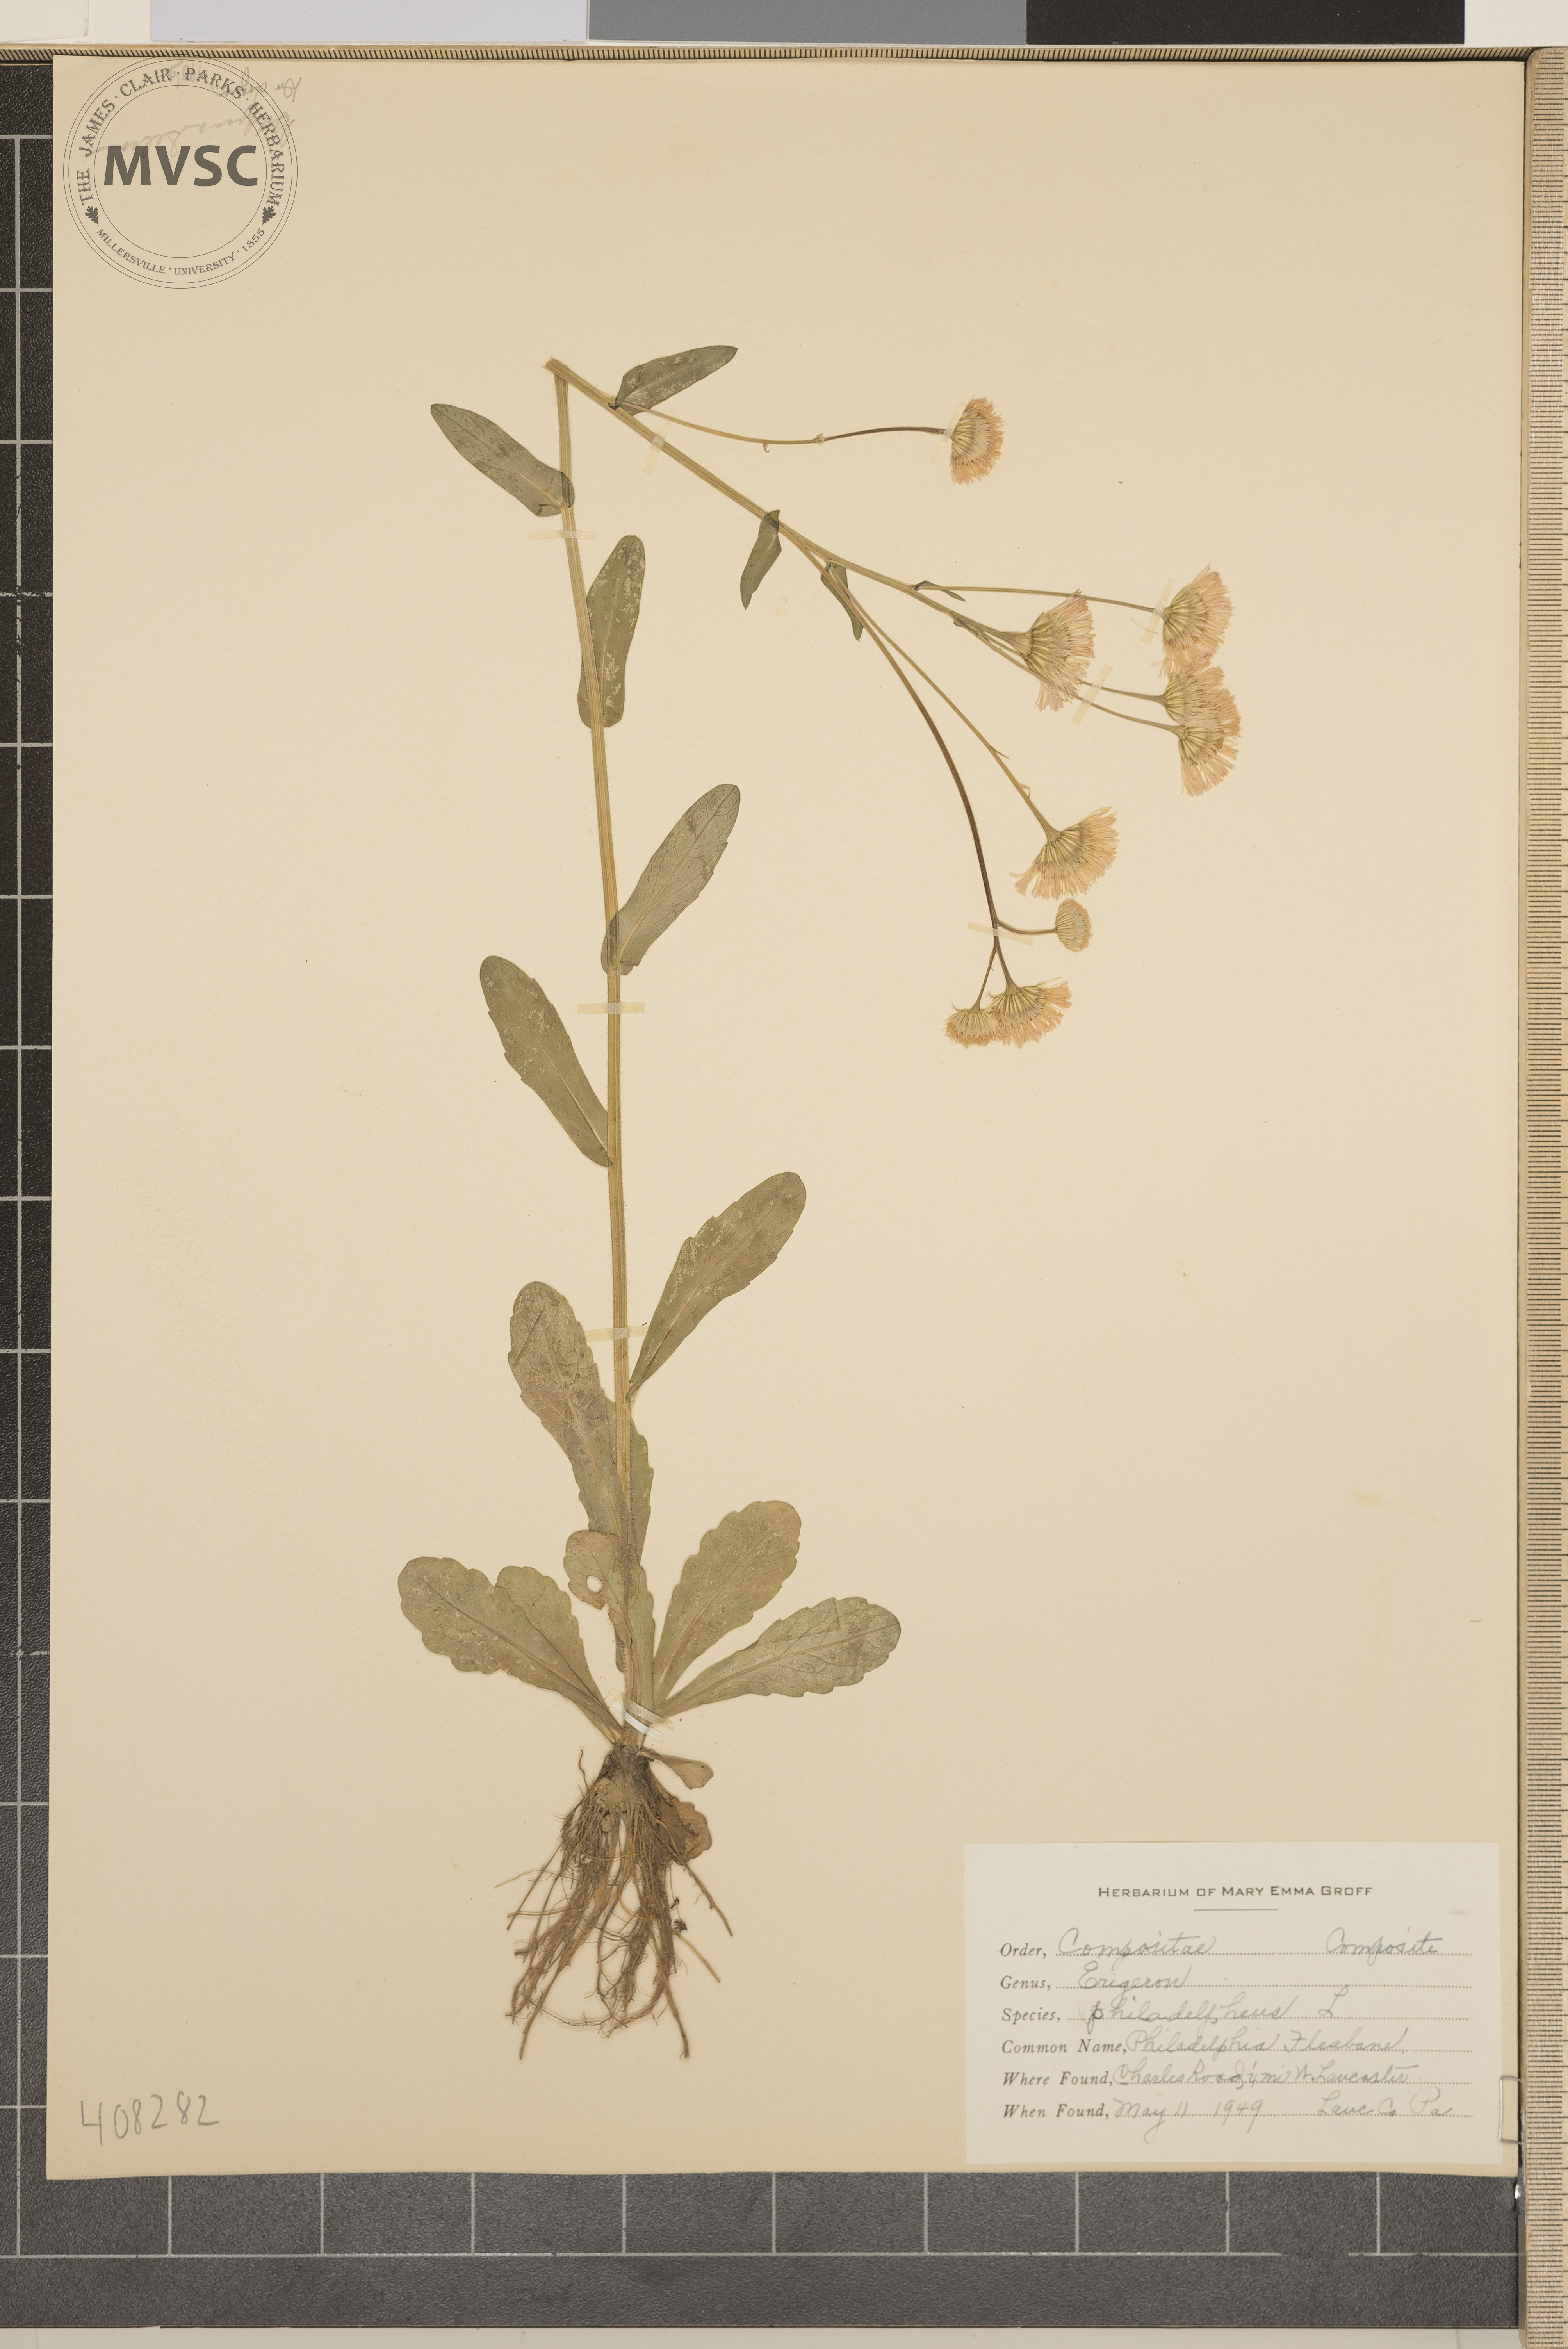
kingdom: Plantae
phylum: Tracheophyta
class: Magnoliopsida
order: Asterales
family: Asteraceae
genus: Erigeron
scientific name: Erigeron philadelphicus
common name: Philadelphia Fleabane
